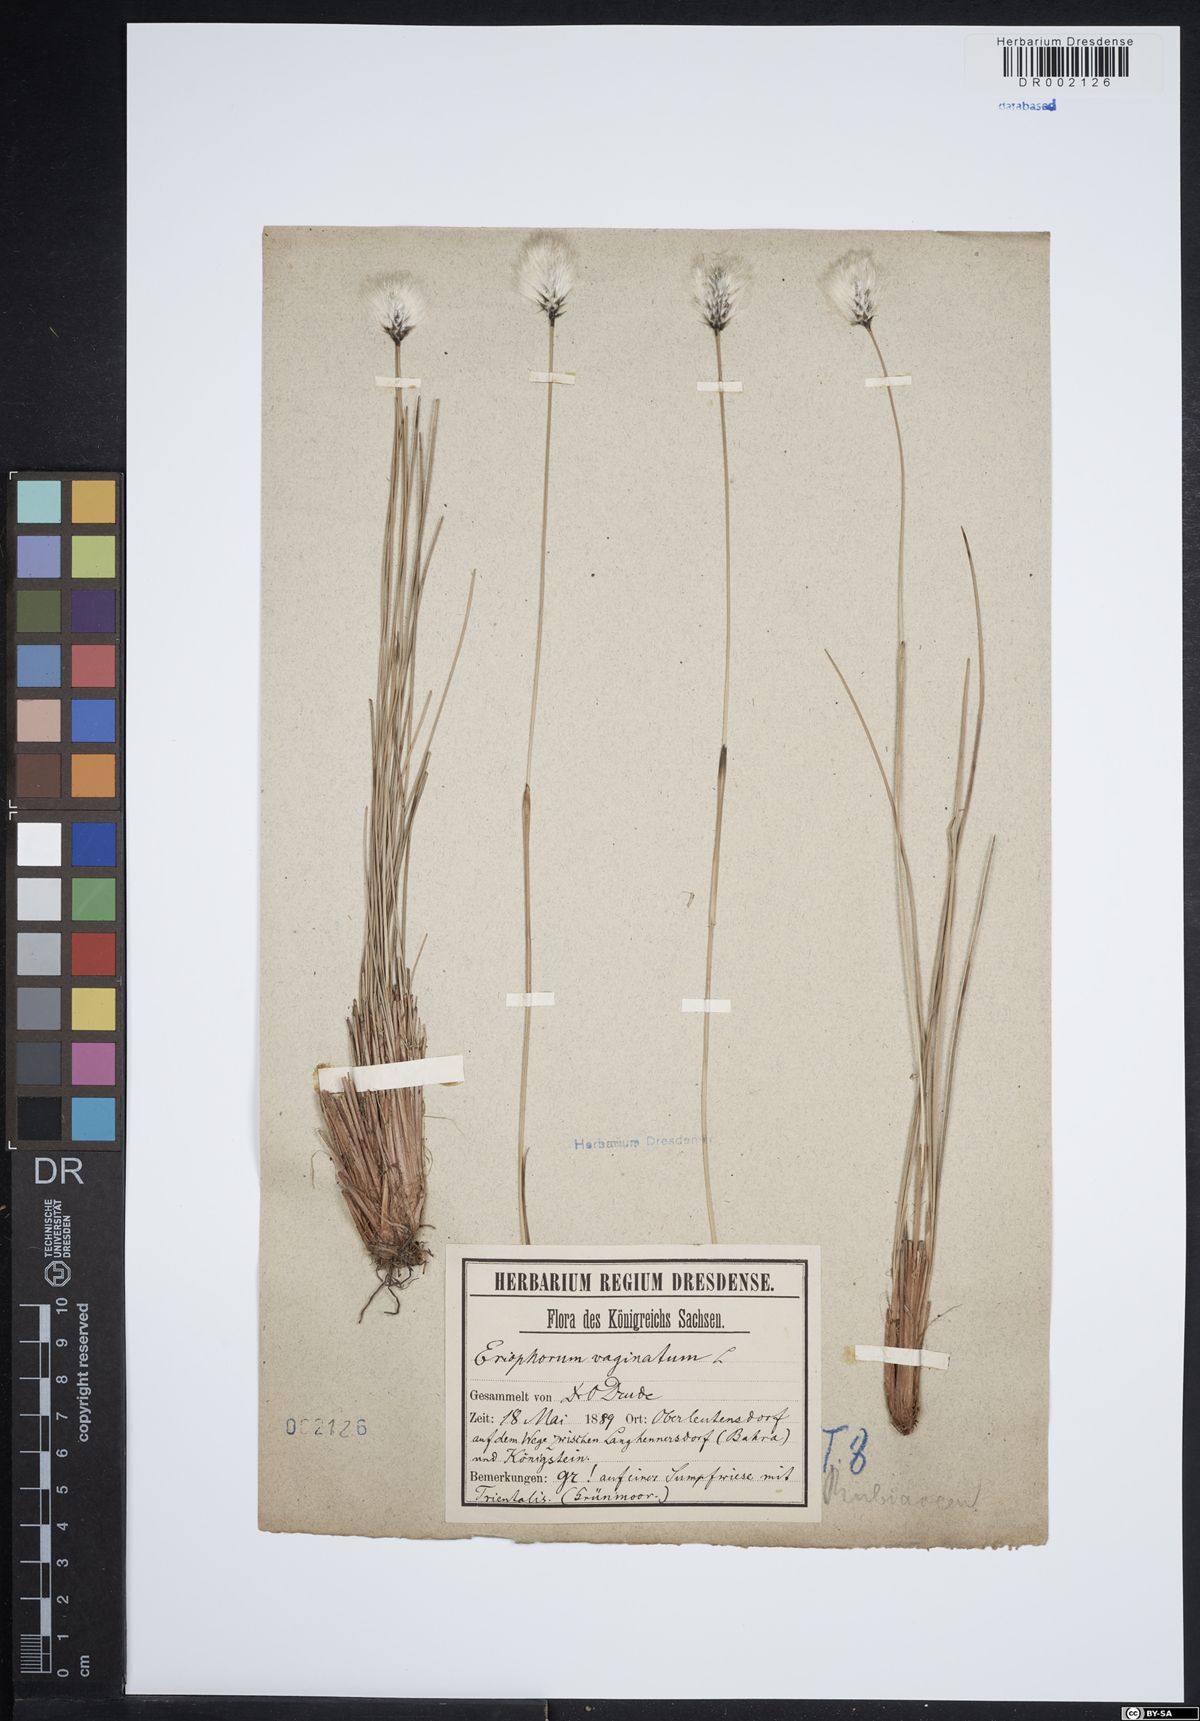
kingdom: Plantae
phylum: Tracheophyta
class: Liliopsida
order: Poales
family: Cyperaceae
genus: Eriophorum
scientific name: Eriophorum vaginatum
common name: Hare's-tail cottongrass
